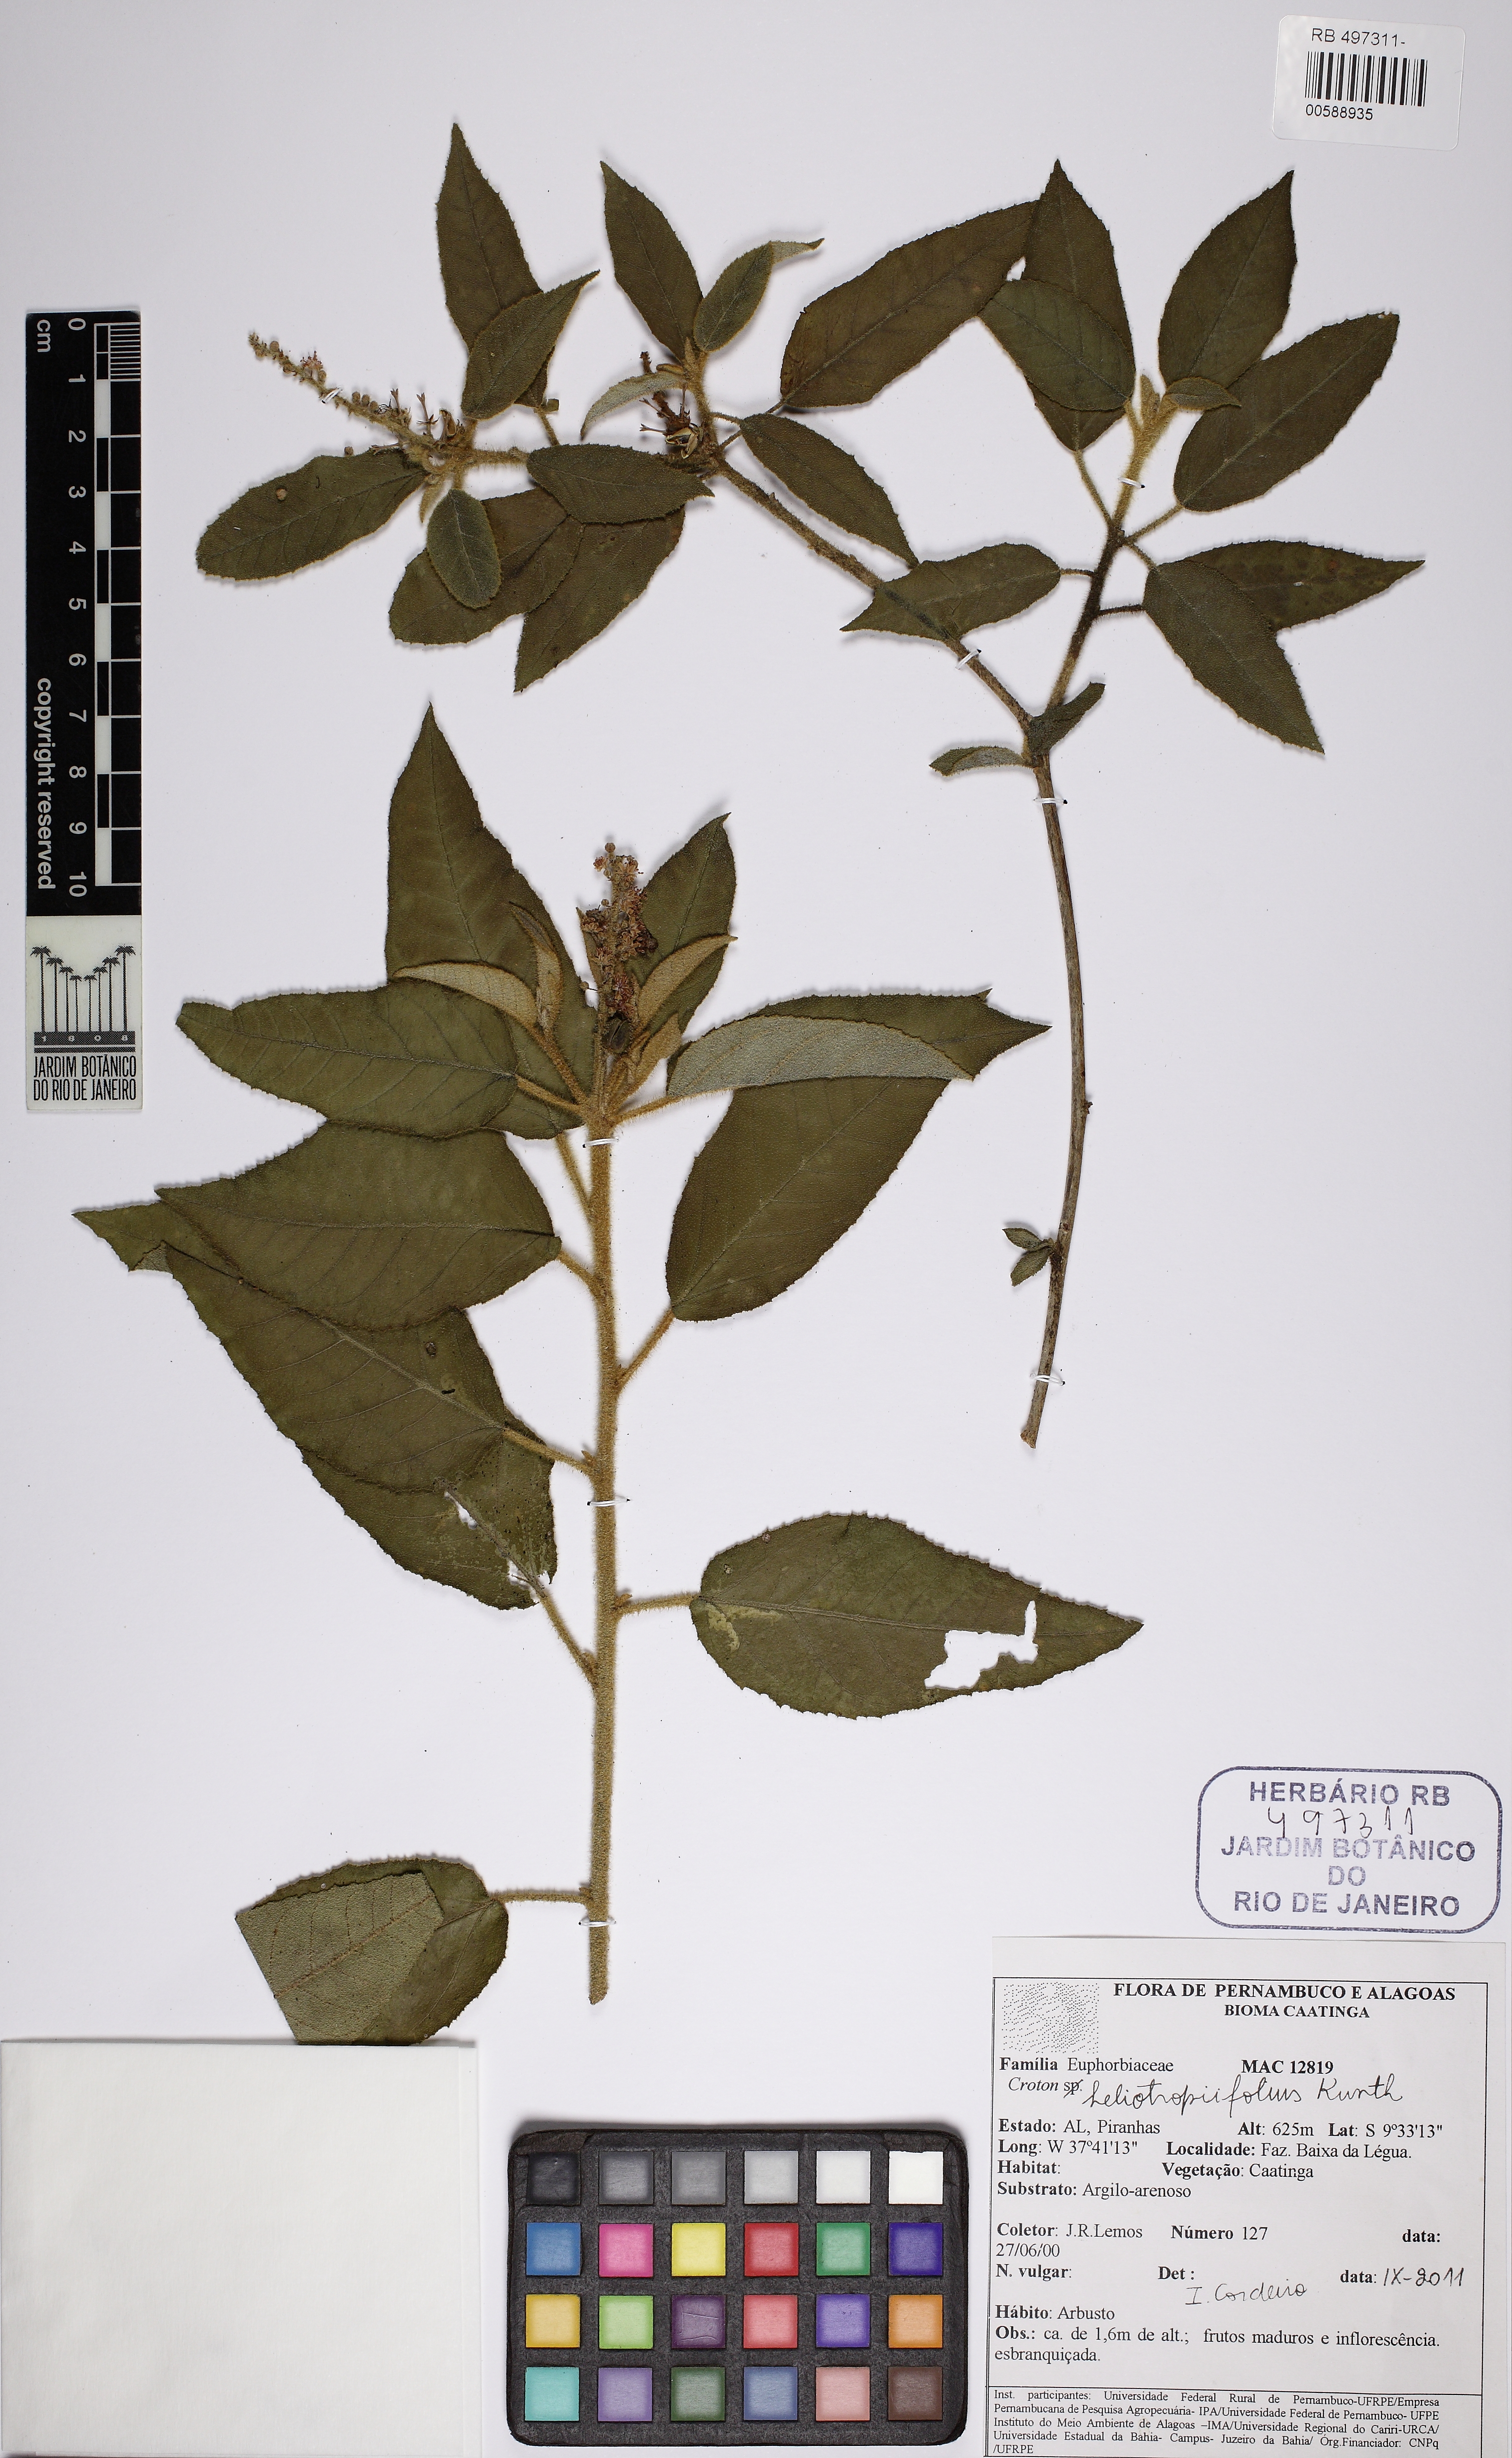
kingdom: Plantae
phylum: Tracheophyta
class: Magnoliopsida
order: Malpighiales
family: Euphorbiaceae
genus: Croton
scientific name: Croton heliotropiifolius
